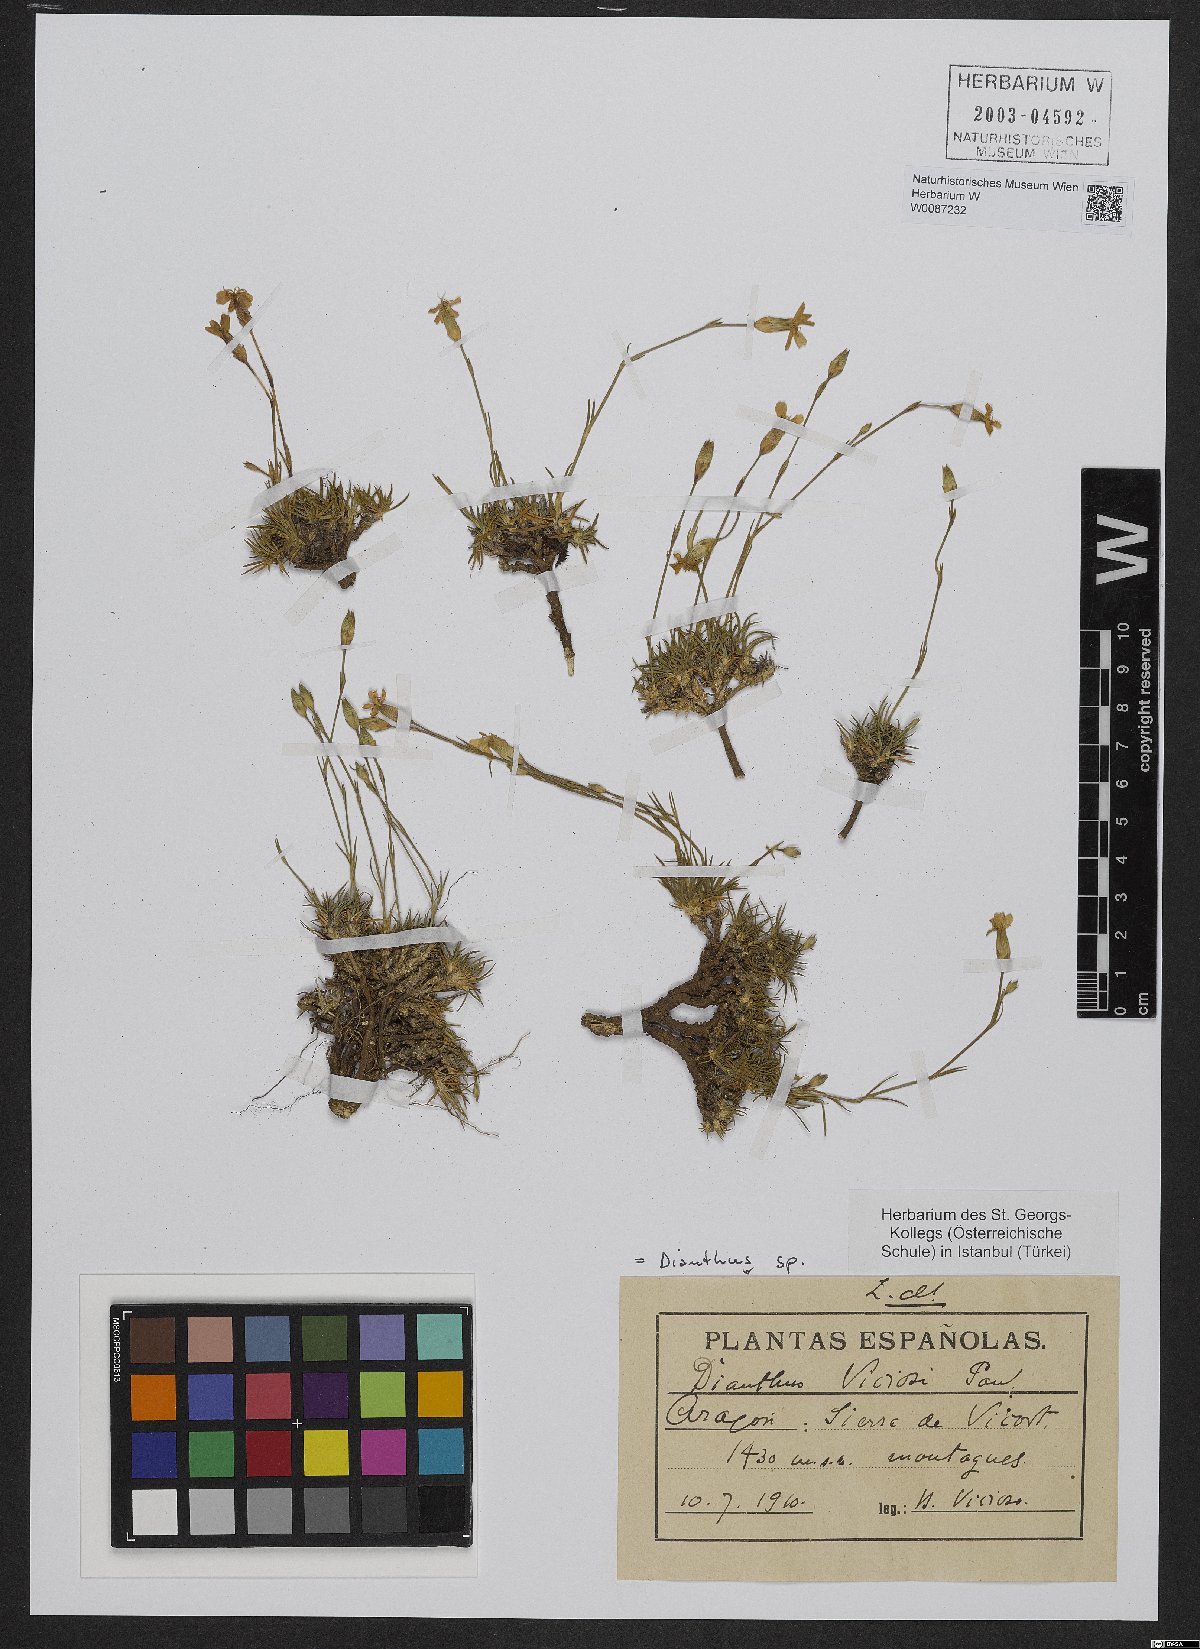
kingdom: Plantae
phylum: Tracheophyta
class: Magnoliopsida
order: Caryophyllales
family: Caryophyllaceae
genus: Dianthus
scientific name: Dianthus pungens
